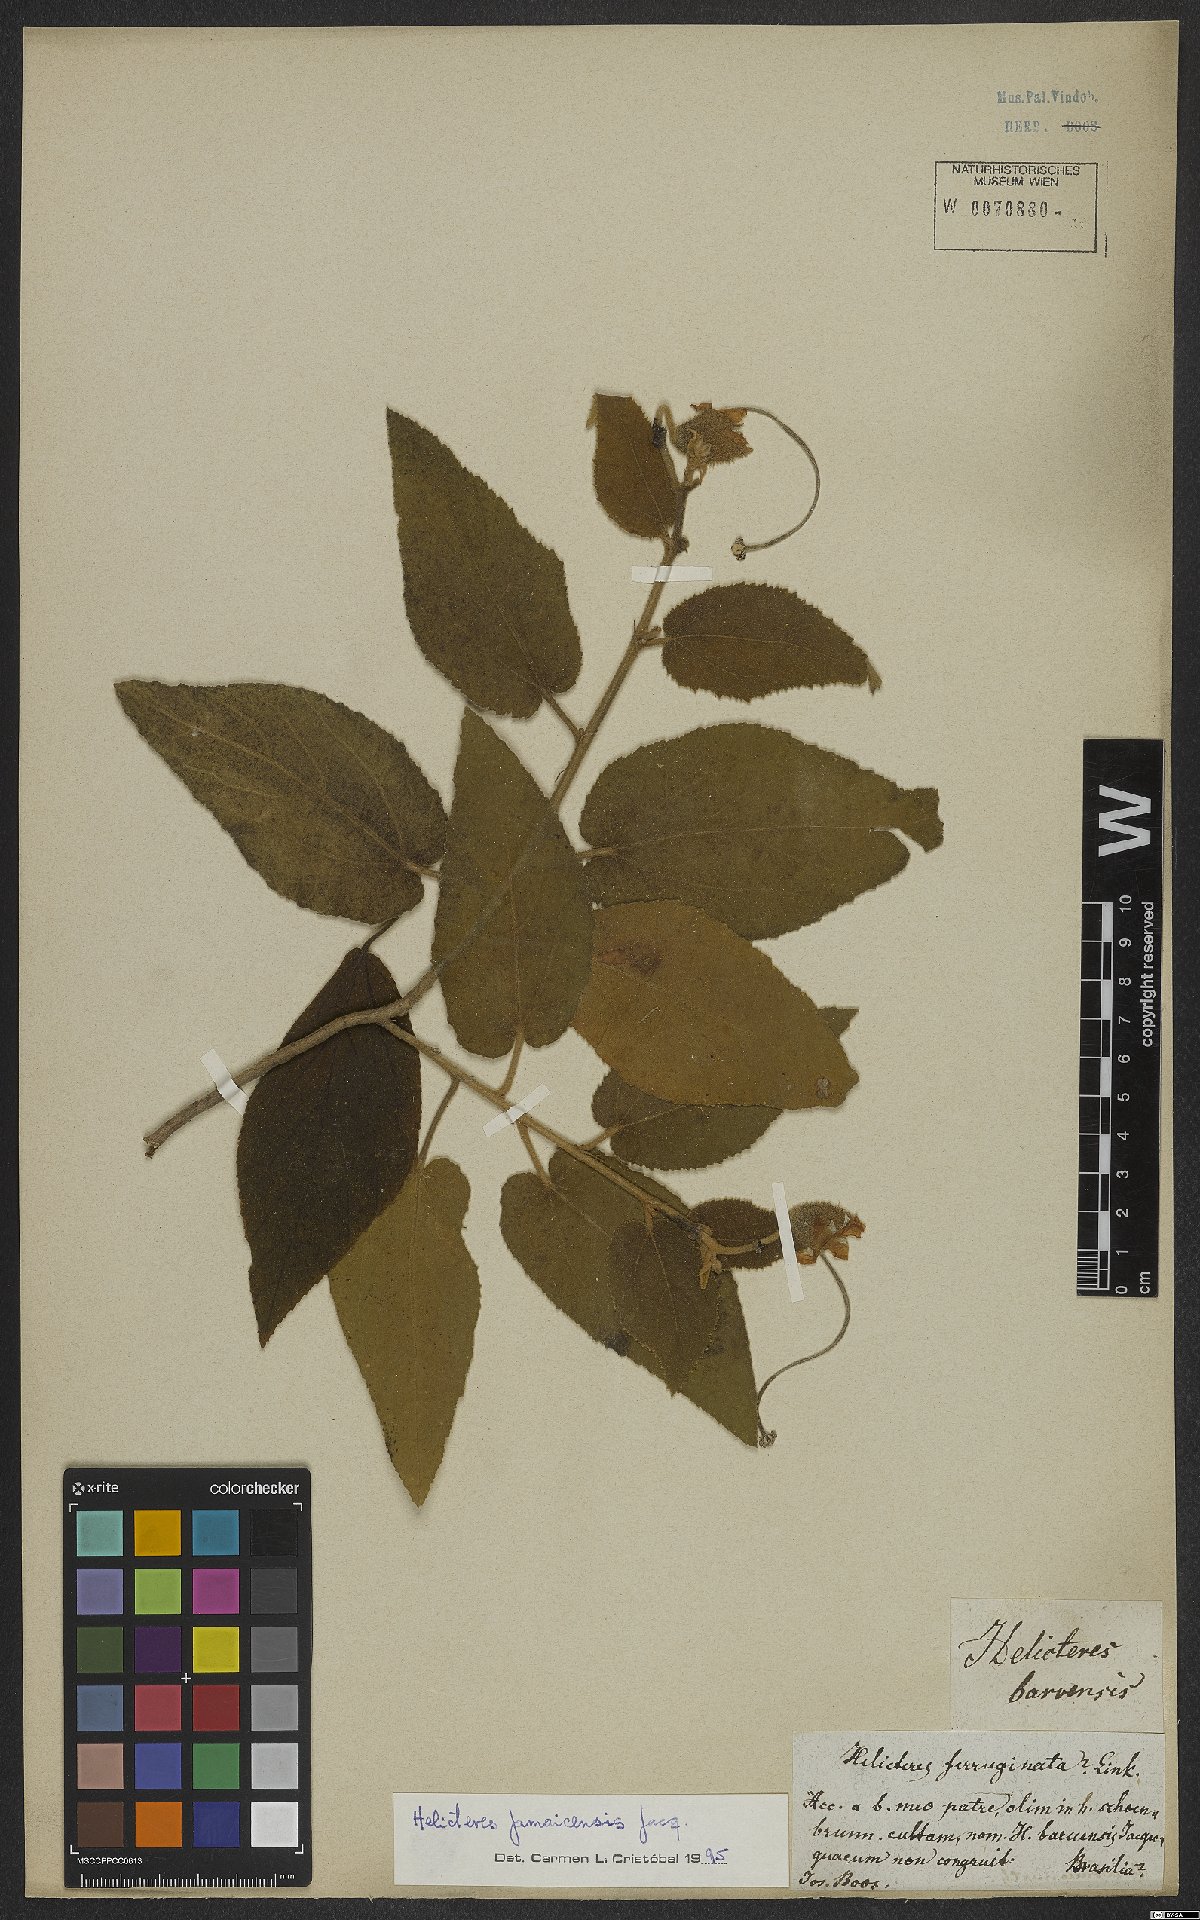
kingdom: Plantae
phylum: Tracheophyta
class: Magnoliopsida
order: Malvales
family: Malvaceae
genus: Helicteres
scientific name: Helicteres jamaicensis
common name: Cowbush
